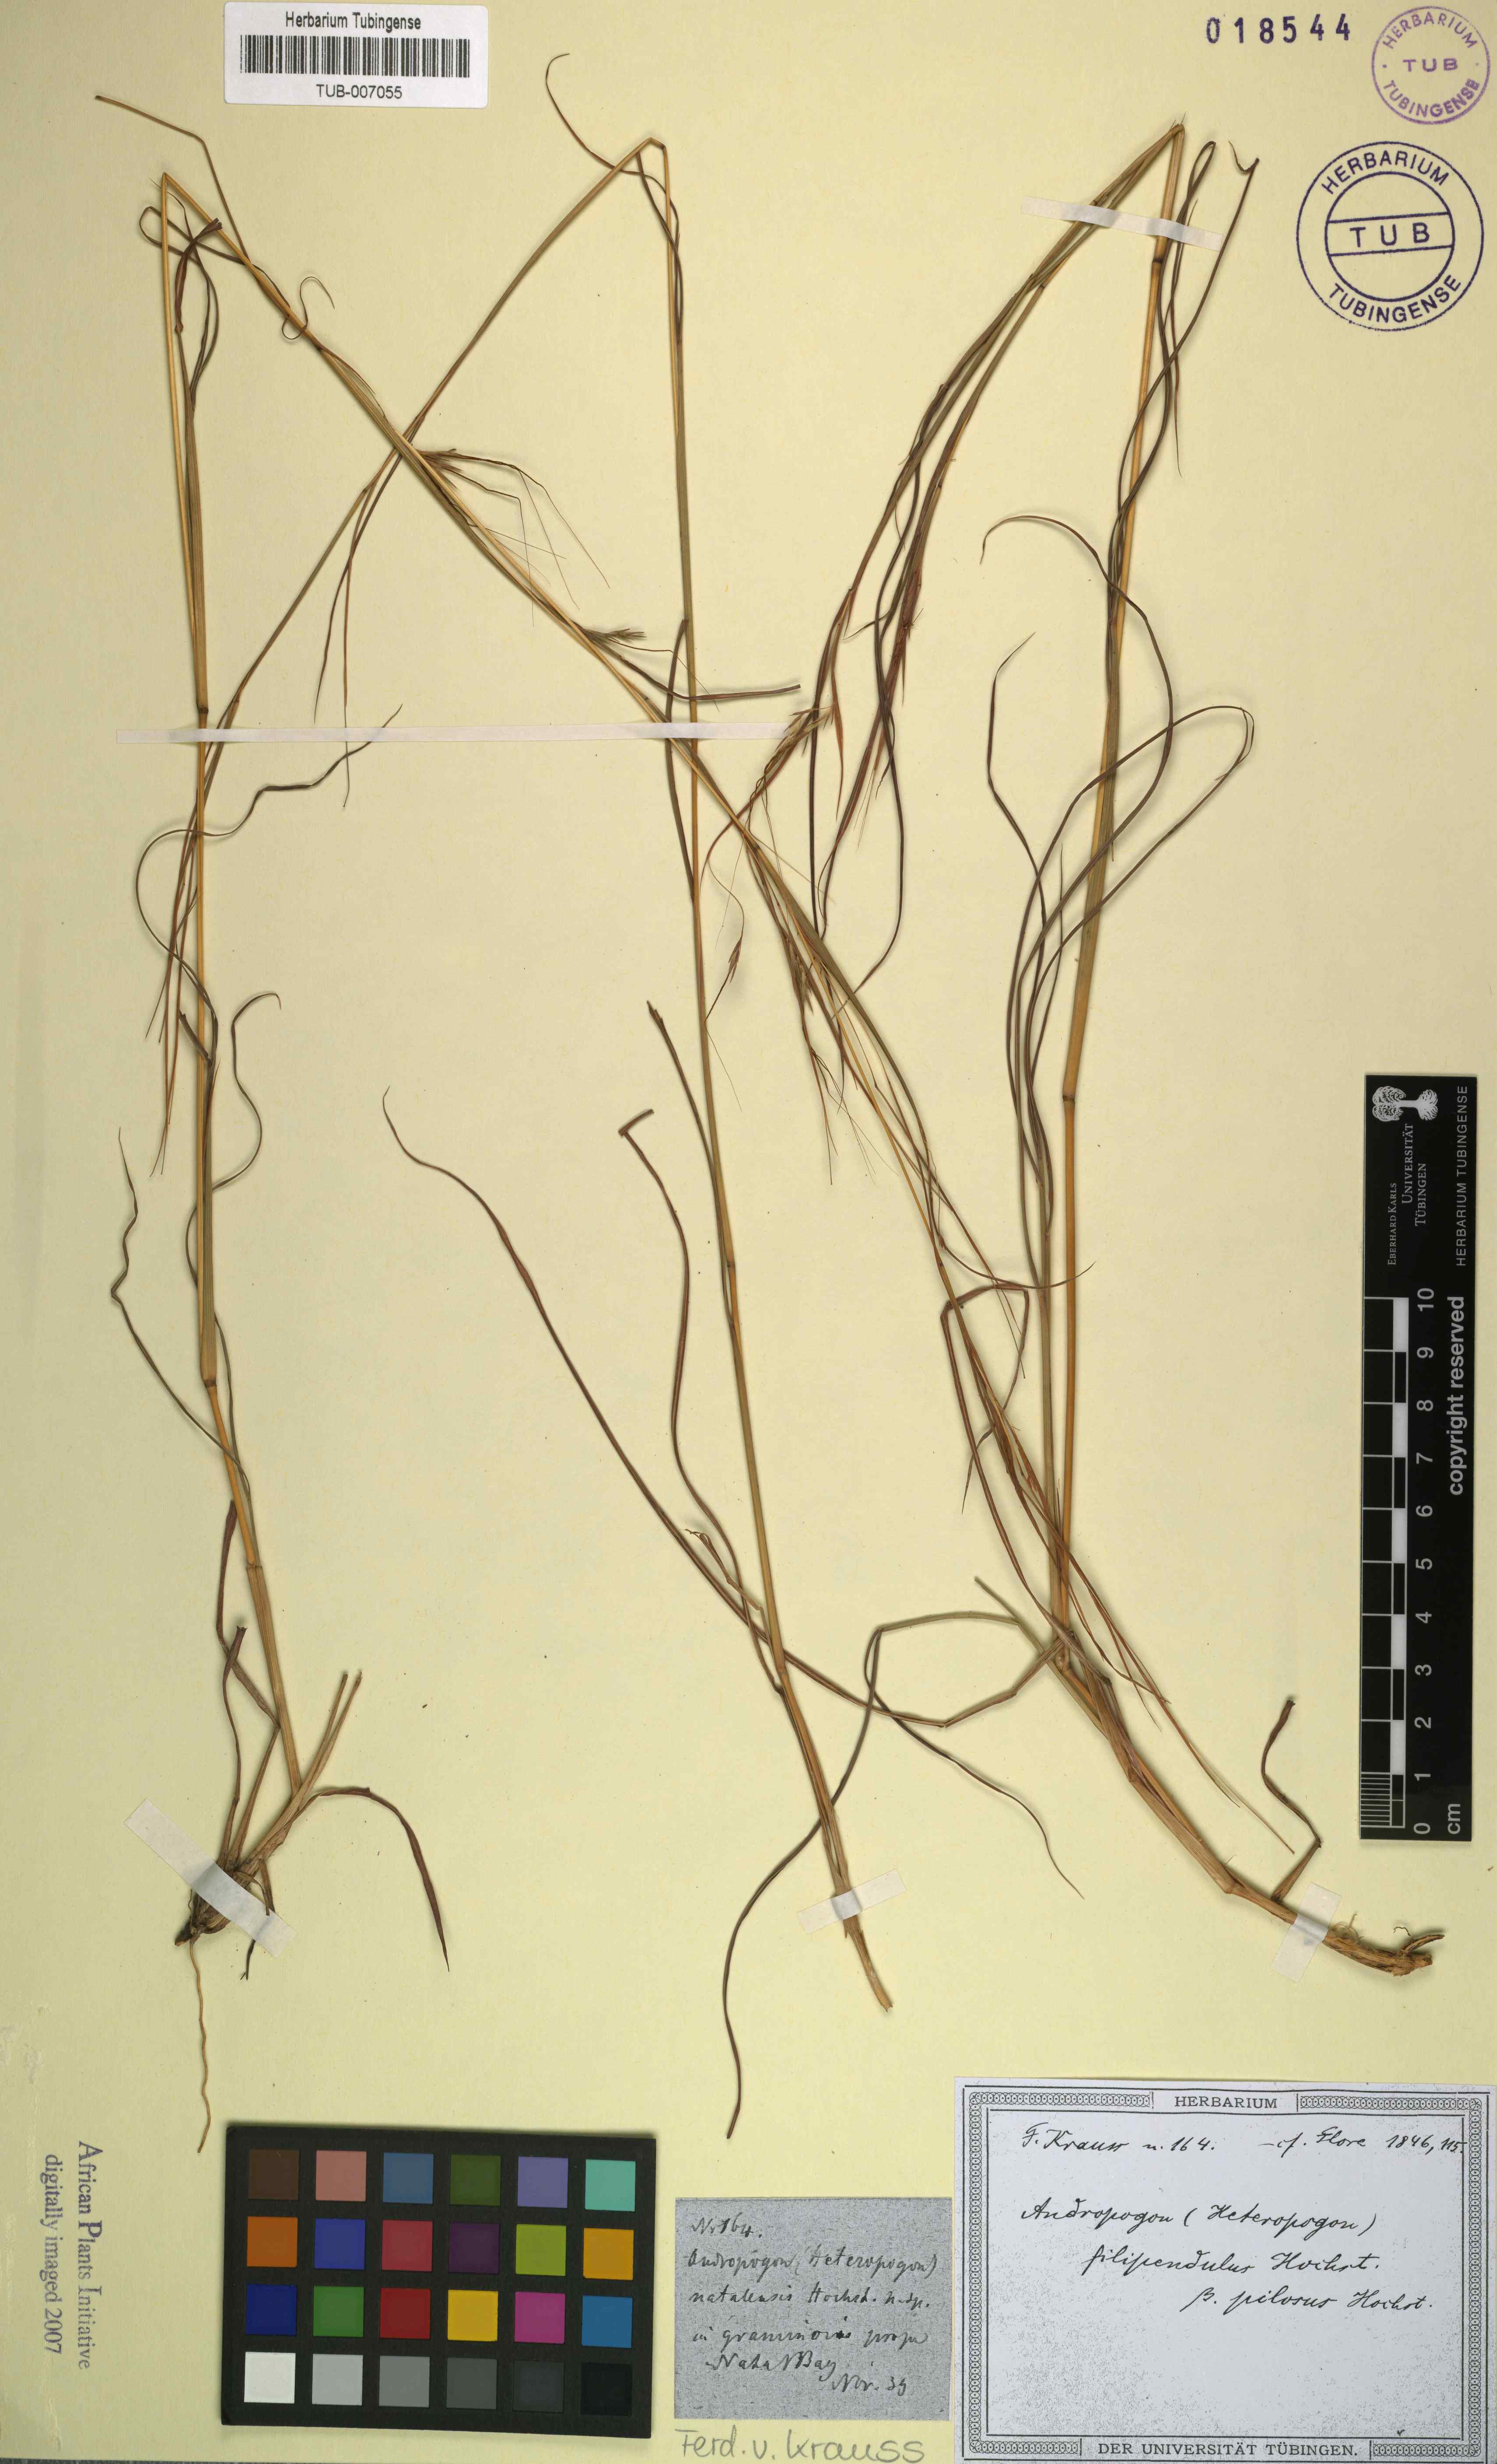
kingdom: Plantae
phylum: Tracheophyta
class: Liliopsida
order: Poales
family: Poaceae
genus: Andropogon
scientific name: Andropogon
